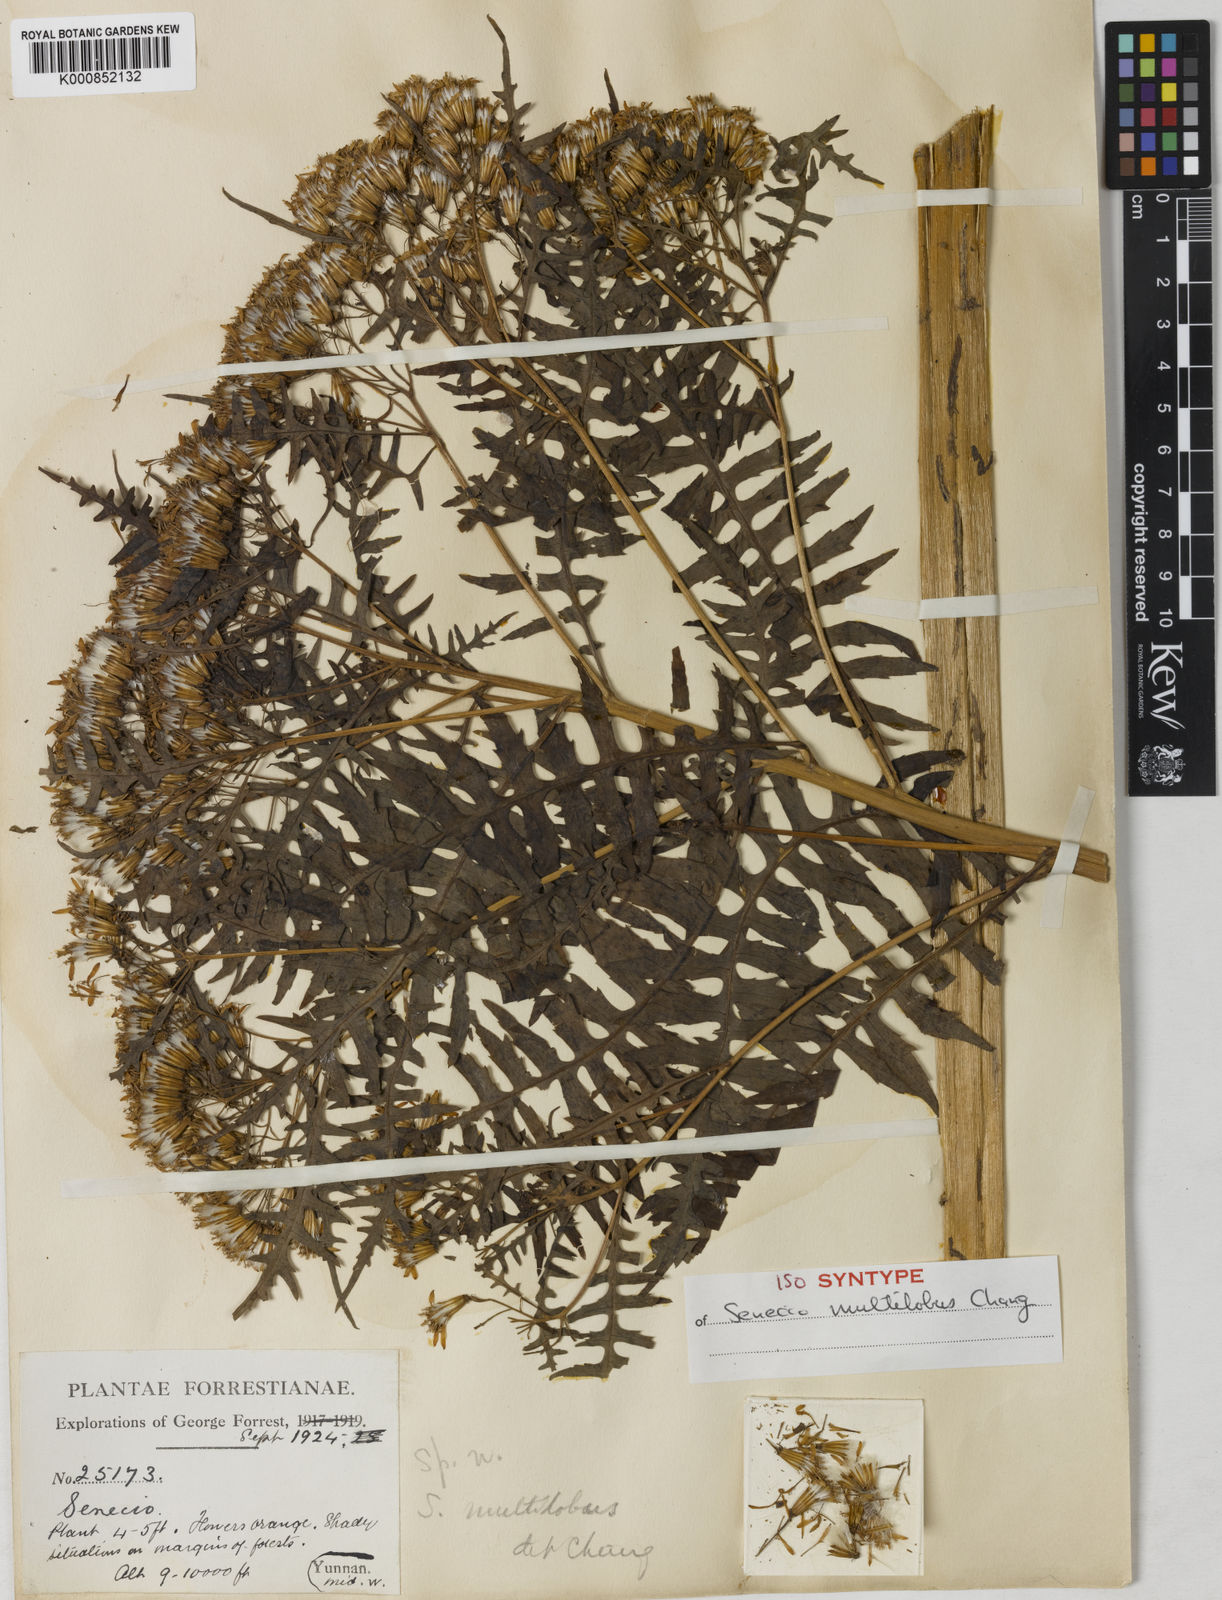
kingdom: Plantae
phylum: Tracheophyta
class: Magnoliopsida
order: Asterales
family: Asteraceae
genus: Senecio
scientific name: Senecio multilobus
